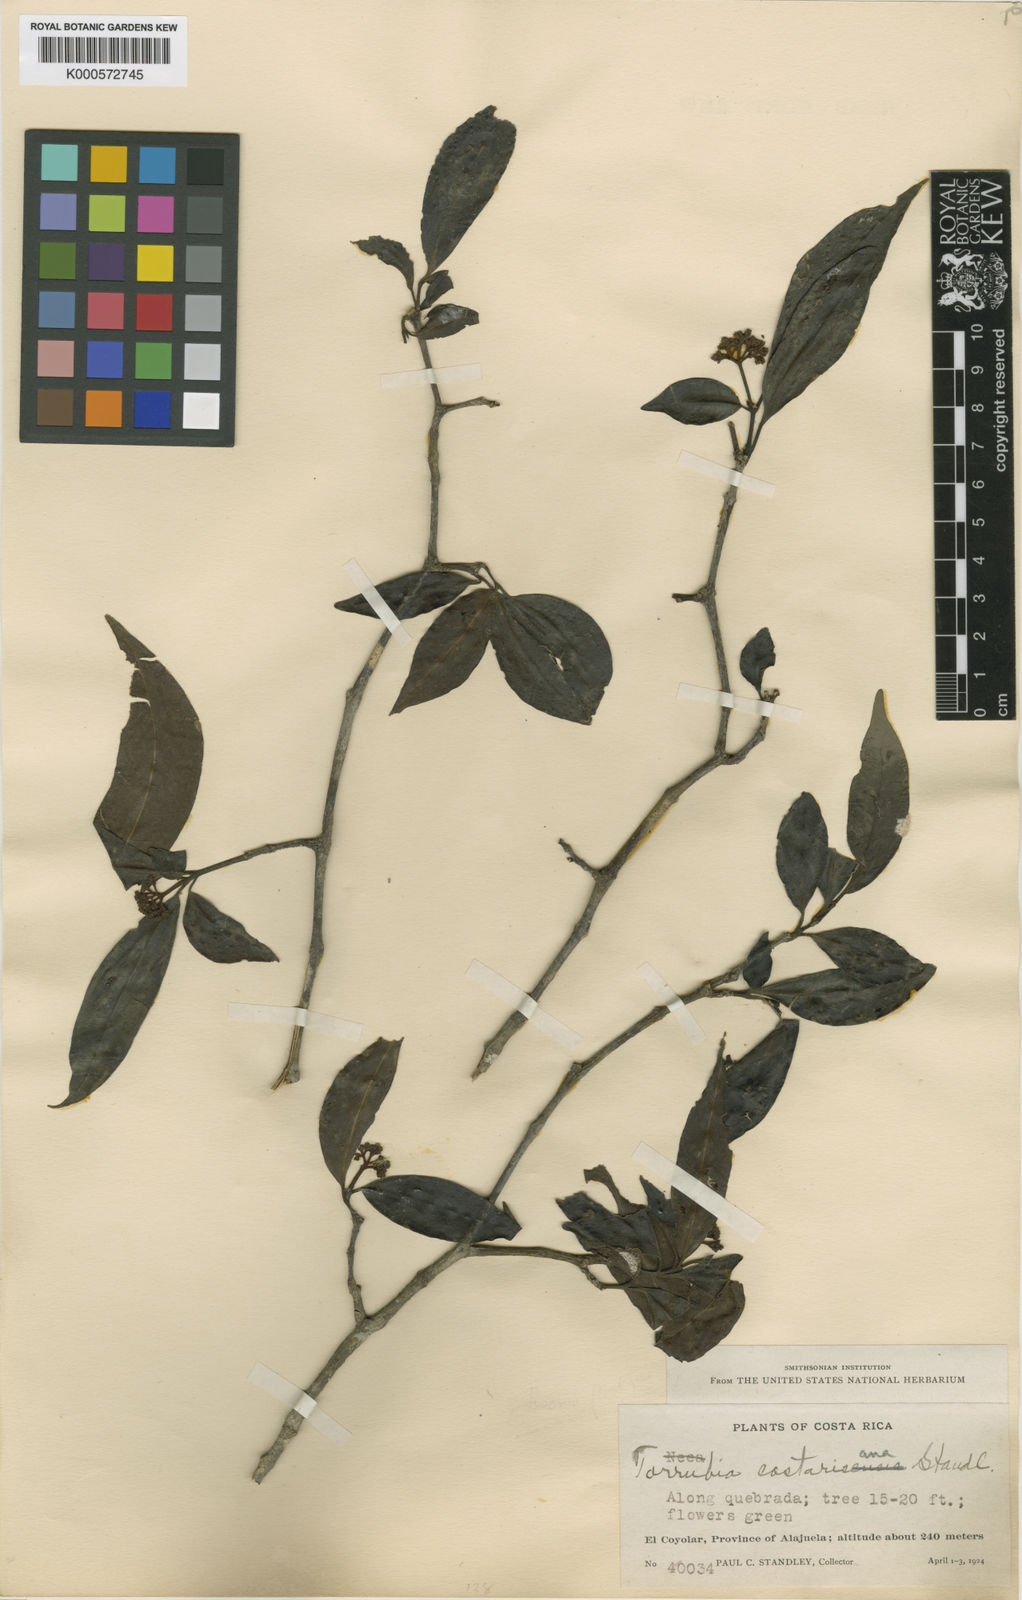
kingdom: Plantae
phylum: Tracheophyta
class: Magnoliopsida
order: Caryophyllales
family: Nyctaginaceae
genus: Guapira
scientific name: Guapira costaricana
